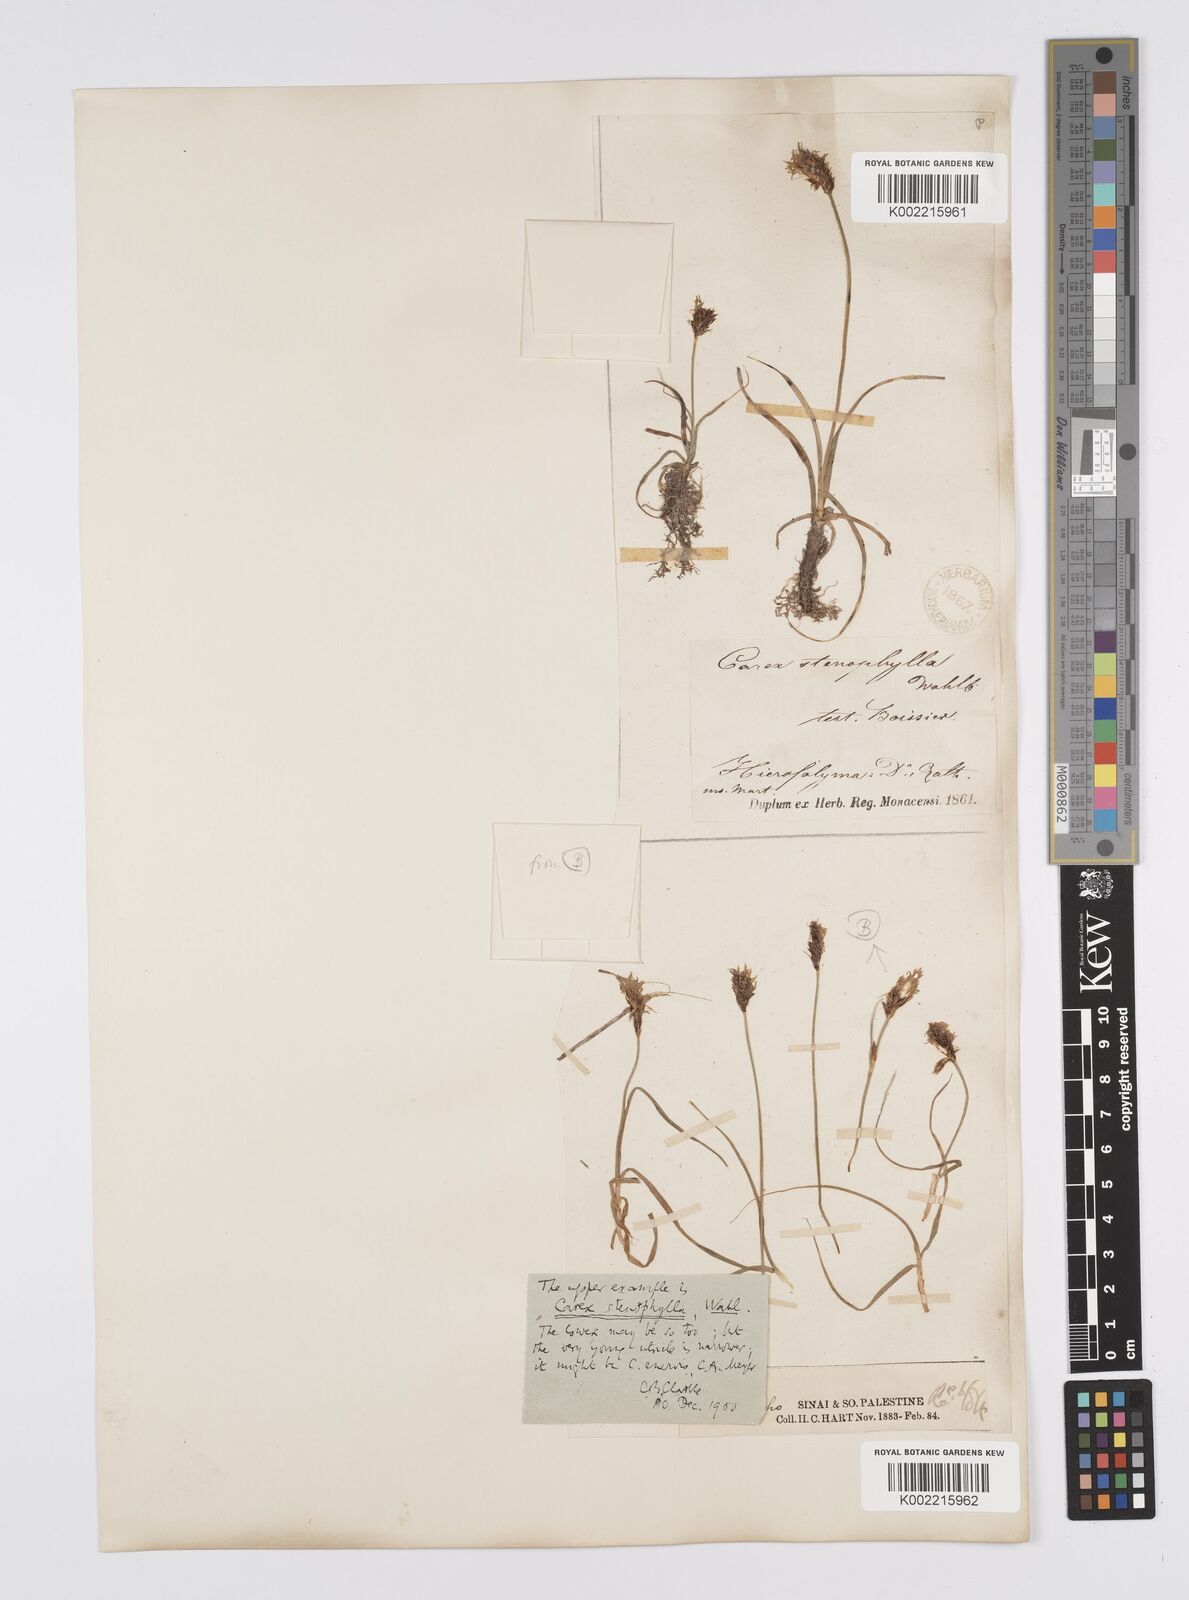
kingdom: Plantae
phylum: Tracheophyta
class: Liliopsida
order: Poales
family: Cyperaceae
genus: Carex
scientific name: Carex pachystylis
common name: Thick-stem sedge
